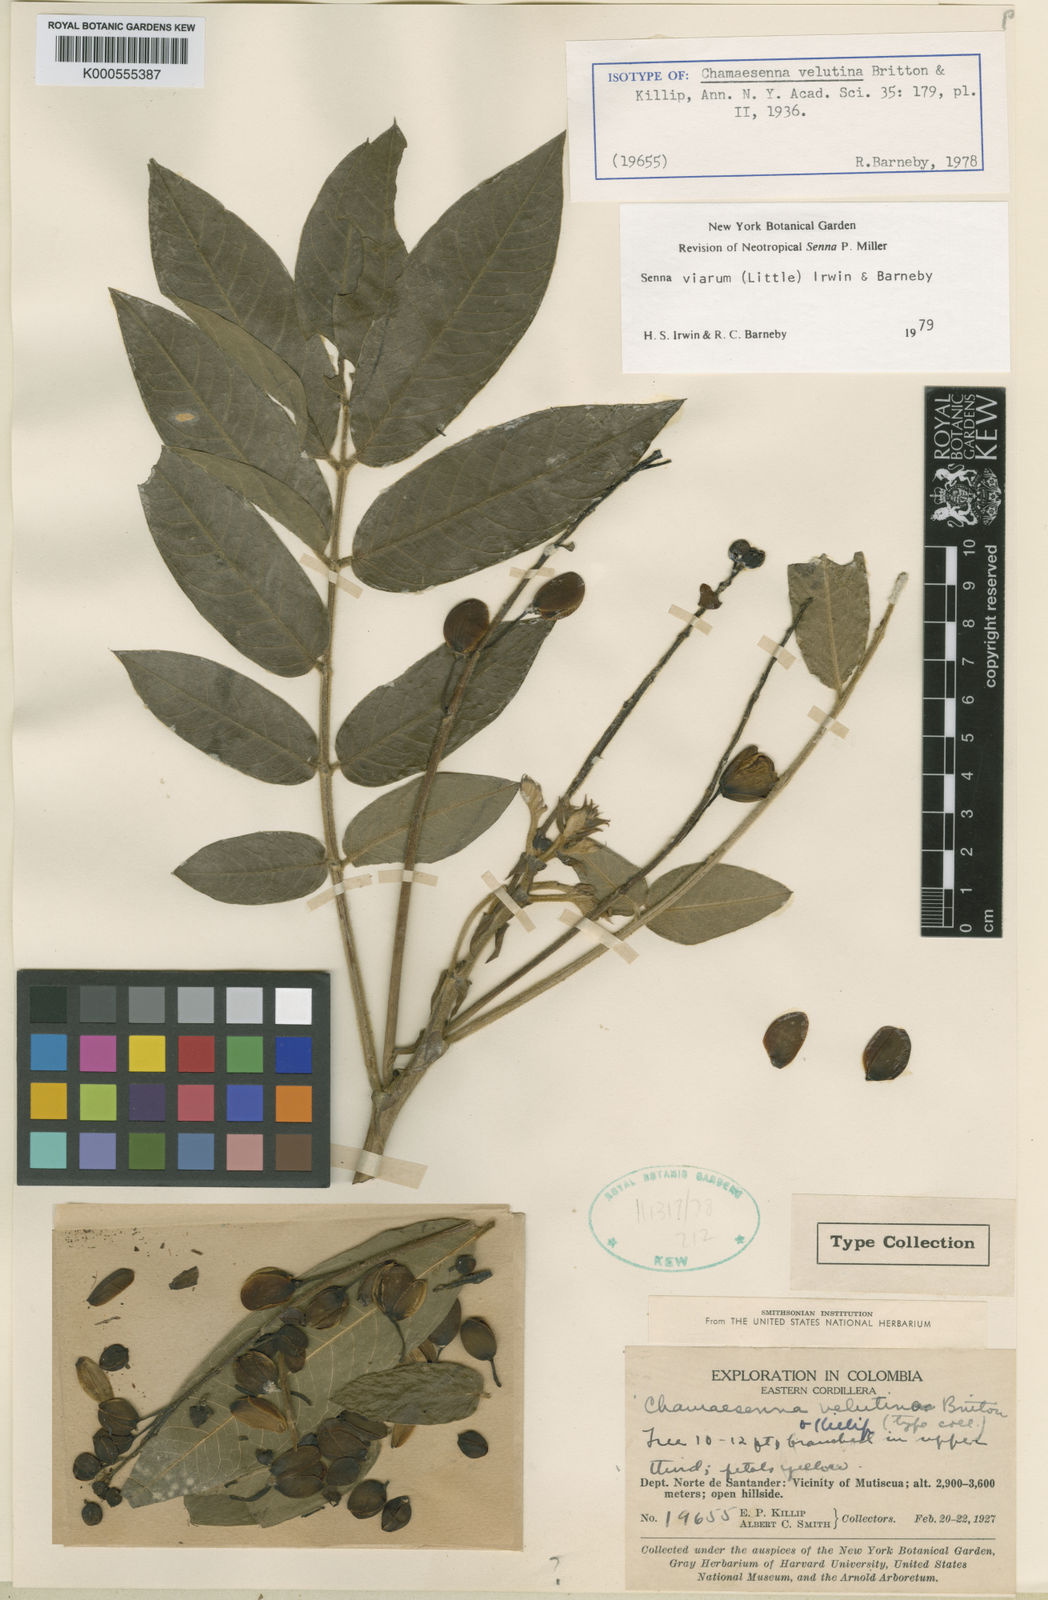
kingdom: Plantae
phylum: Tracheophyta
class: Magnoliopsida
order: Fabales
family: Fabaceae
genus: Senna
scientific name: Senna viarum
